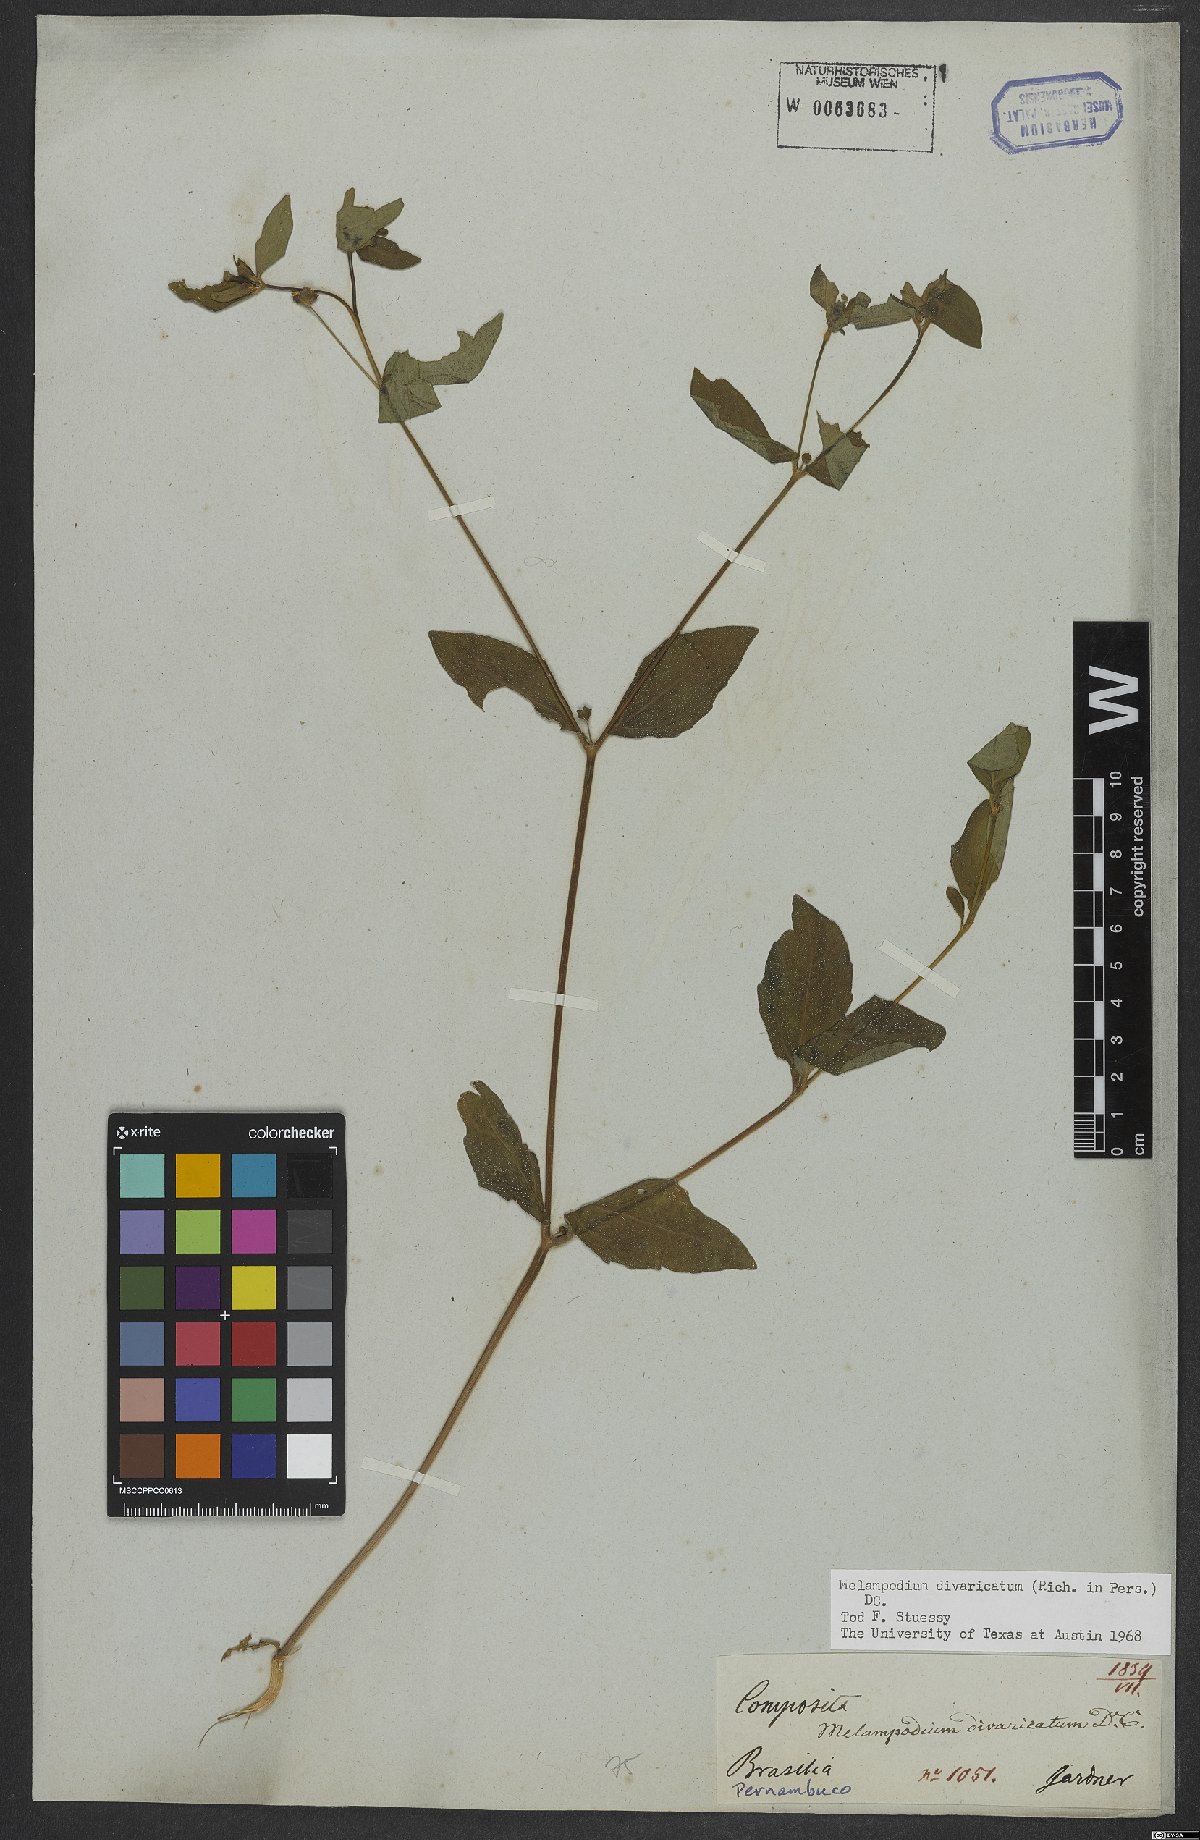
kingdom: Plantae
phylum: Tracheophyta
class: Magnoliopsida
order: Asterales
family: Asteraceae
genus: Melampodium
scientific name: Melampodium divaricatum
